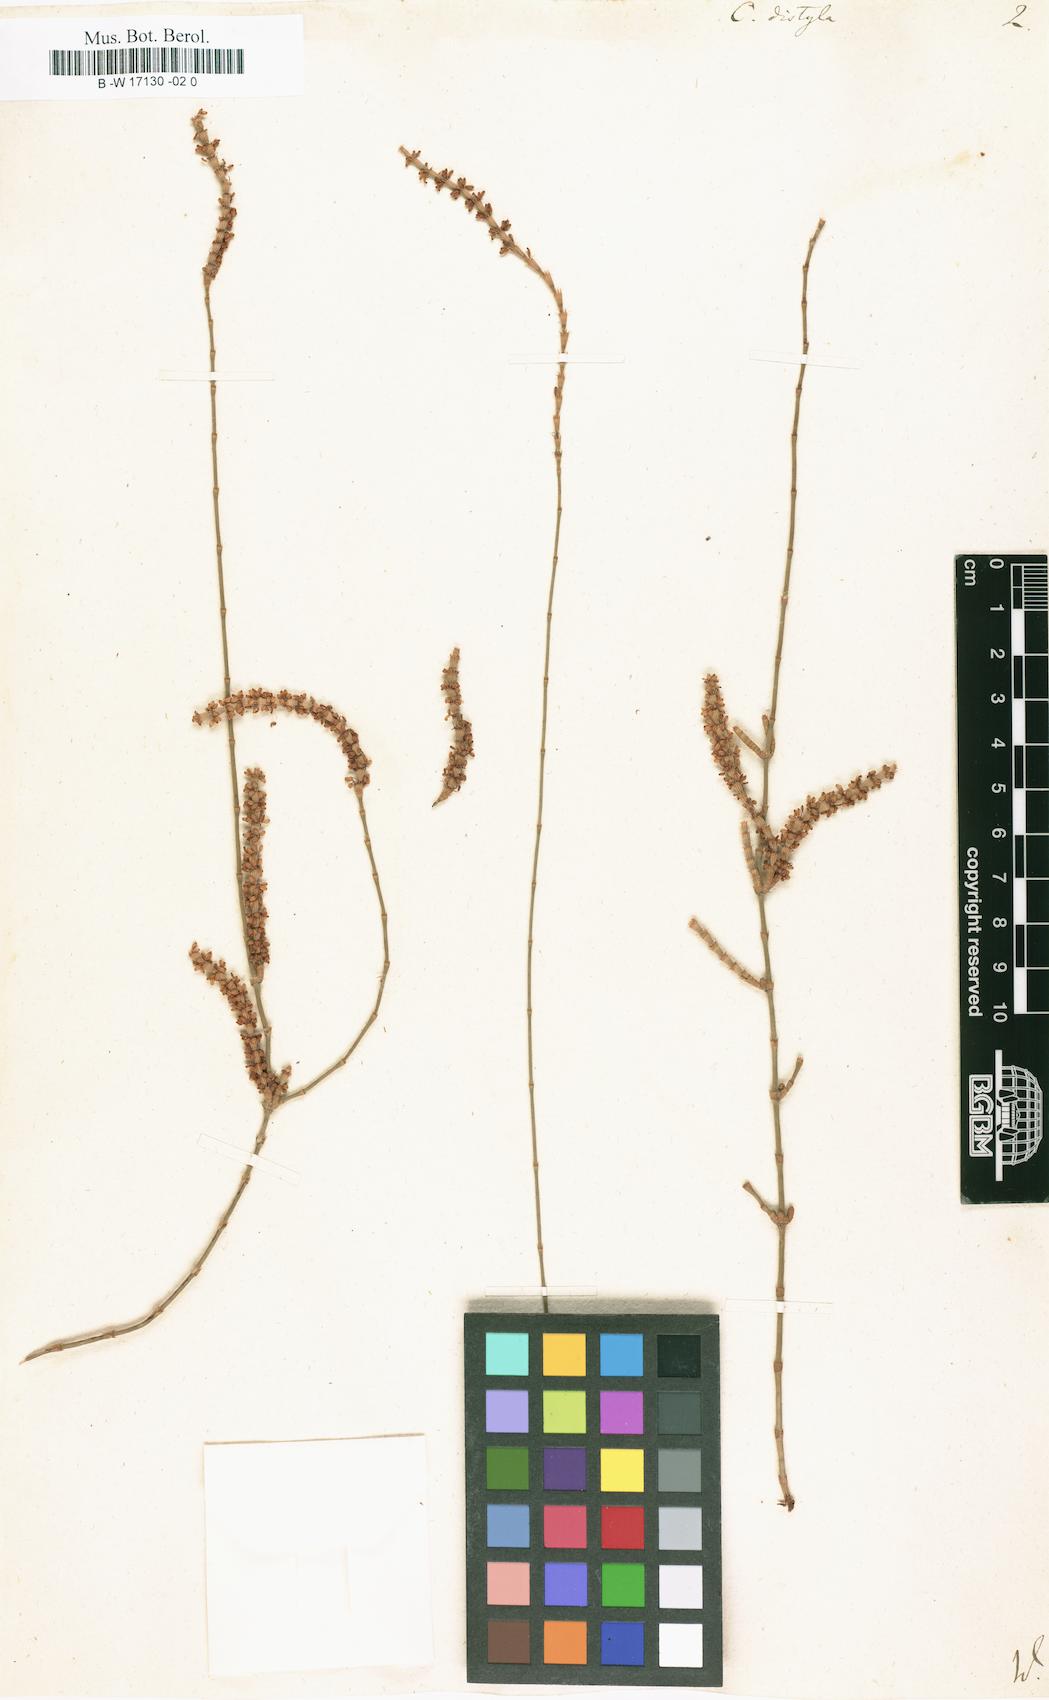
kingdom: Plantae
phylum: Tracheophyta
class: Magnoliopsida
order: Fagales
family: Casuarinaceae
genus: Allocasuarina
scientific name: Allocasuarina distyla
